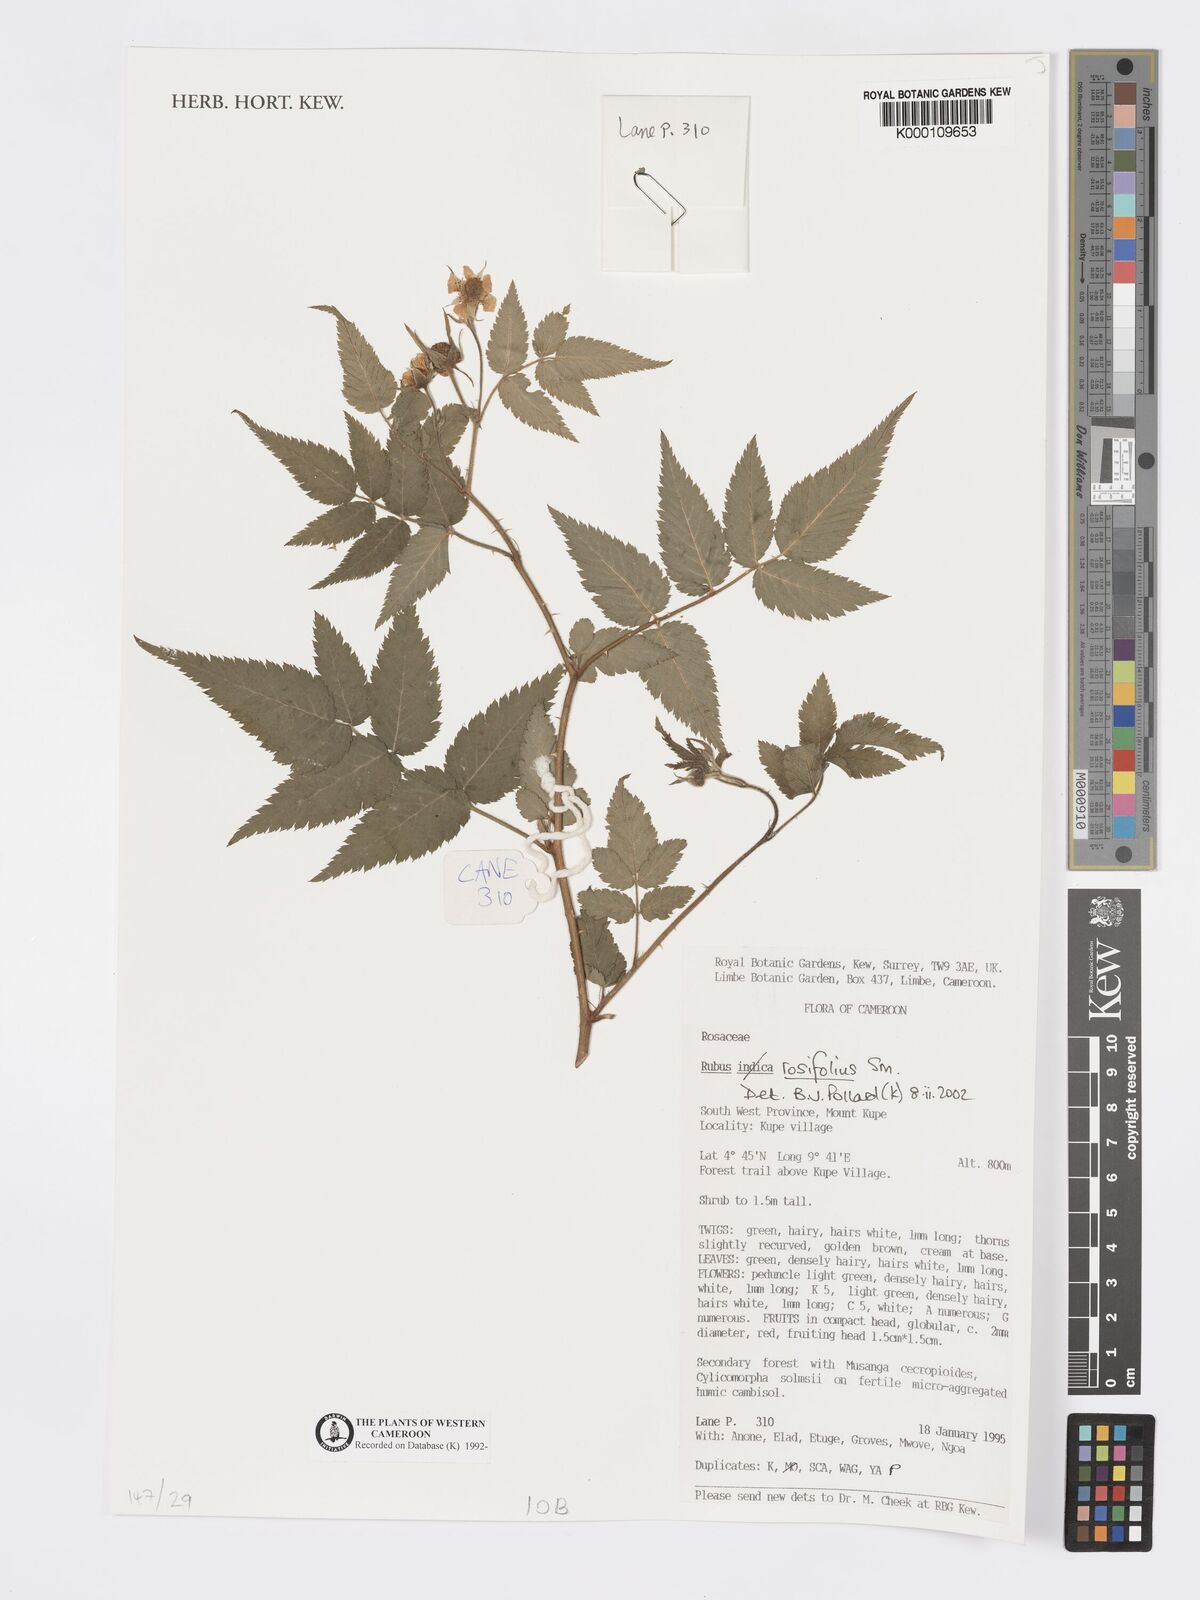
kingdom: Plantae
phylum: Tracheophyta
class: Magnoliopsida
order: Rosales
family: Rosaceae
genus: Rubus
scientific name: Rubus rosifolius
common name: Roseleaf raspberry
